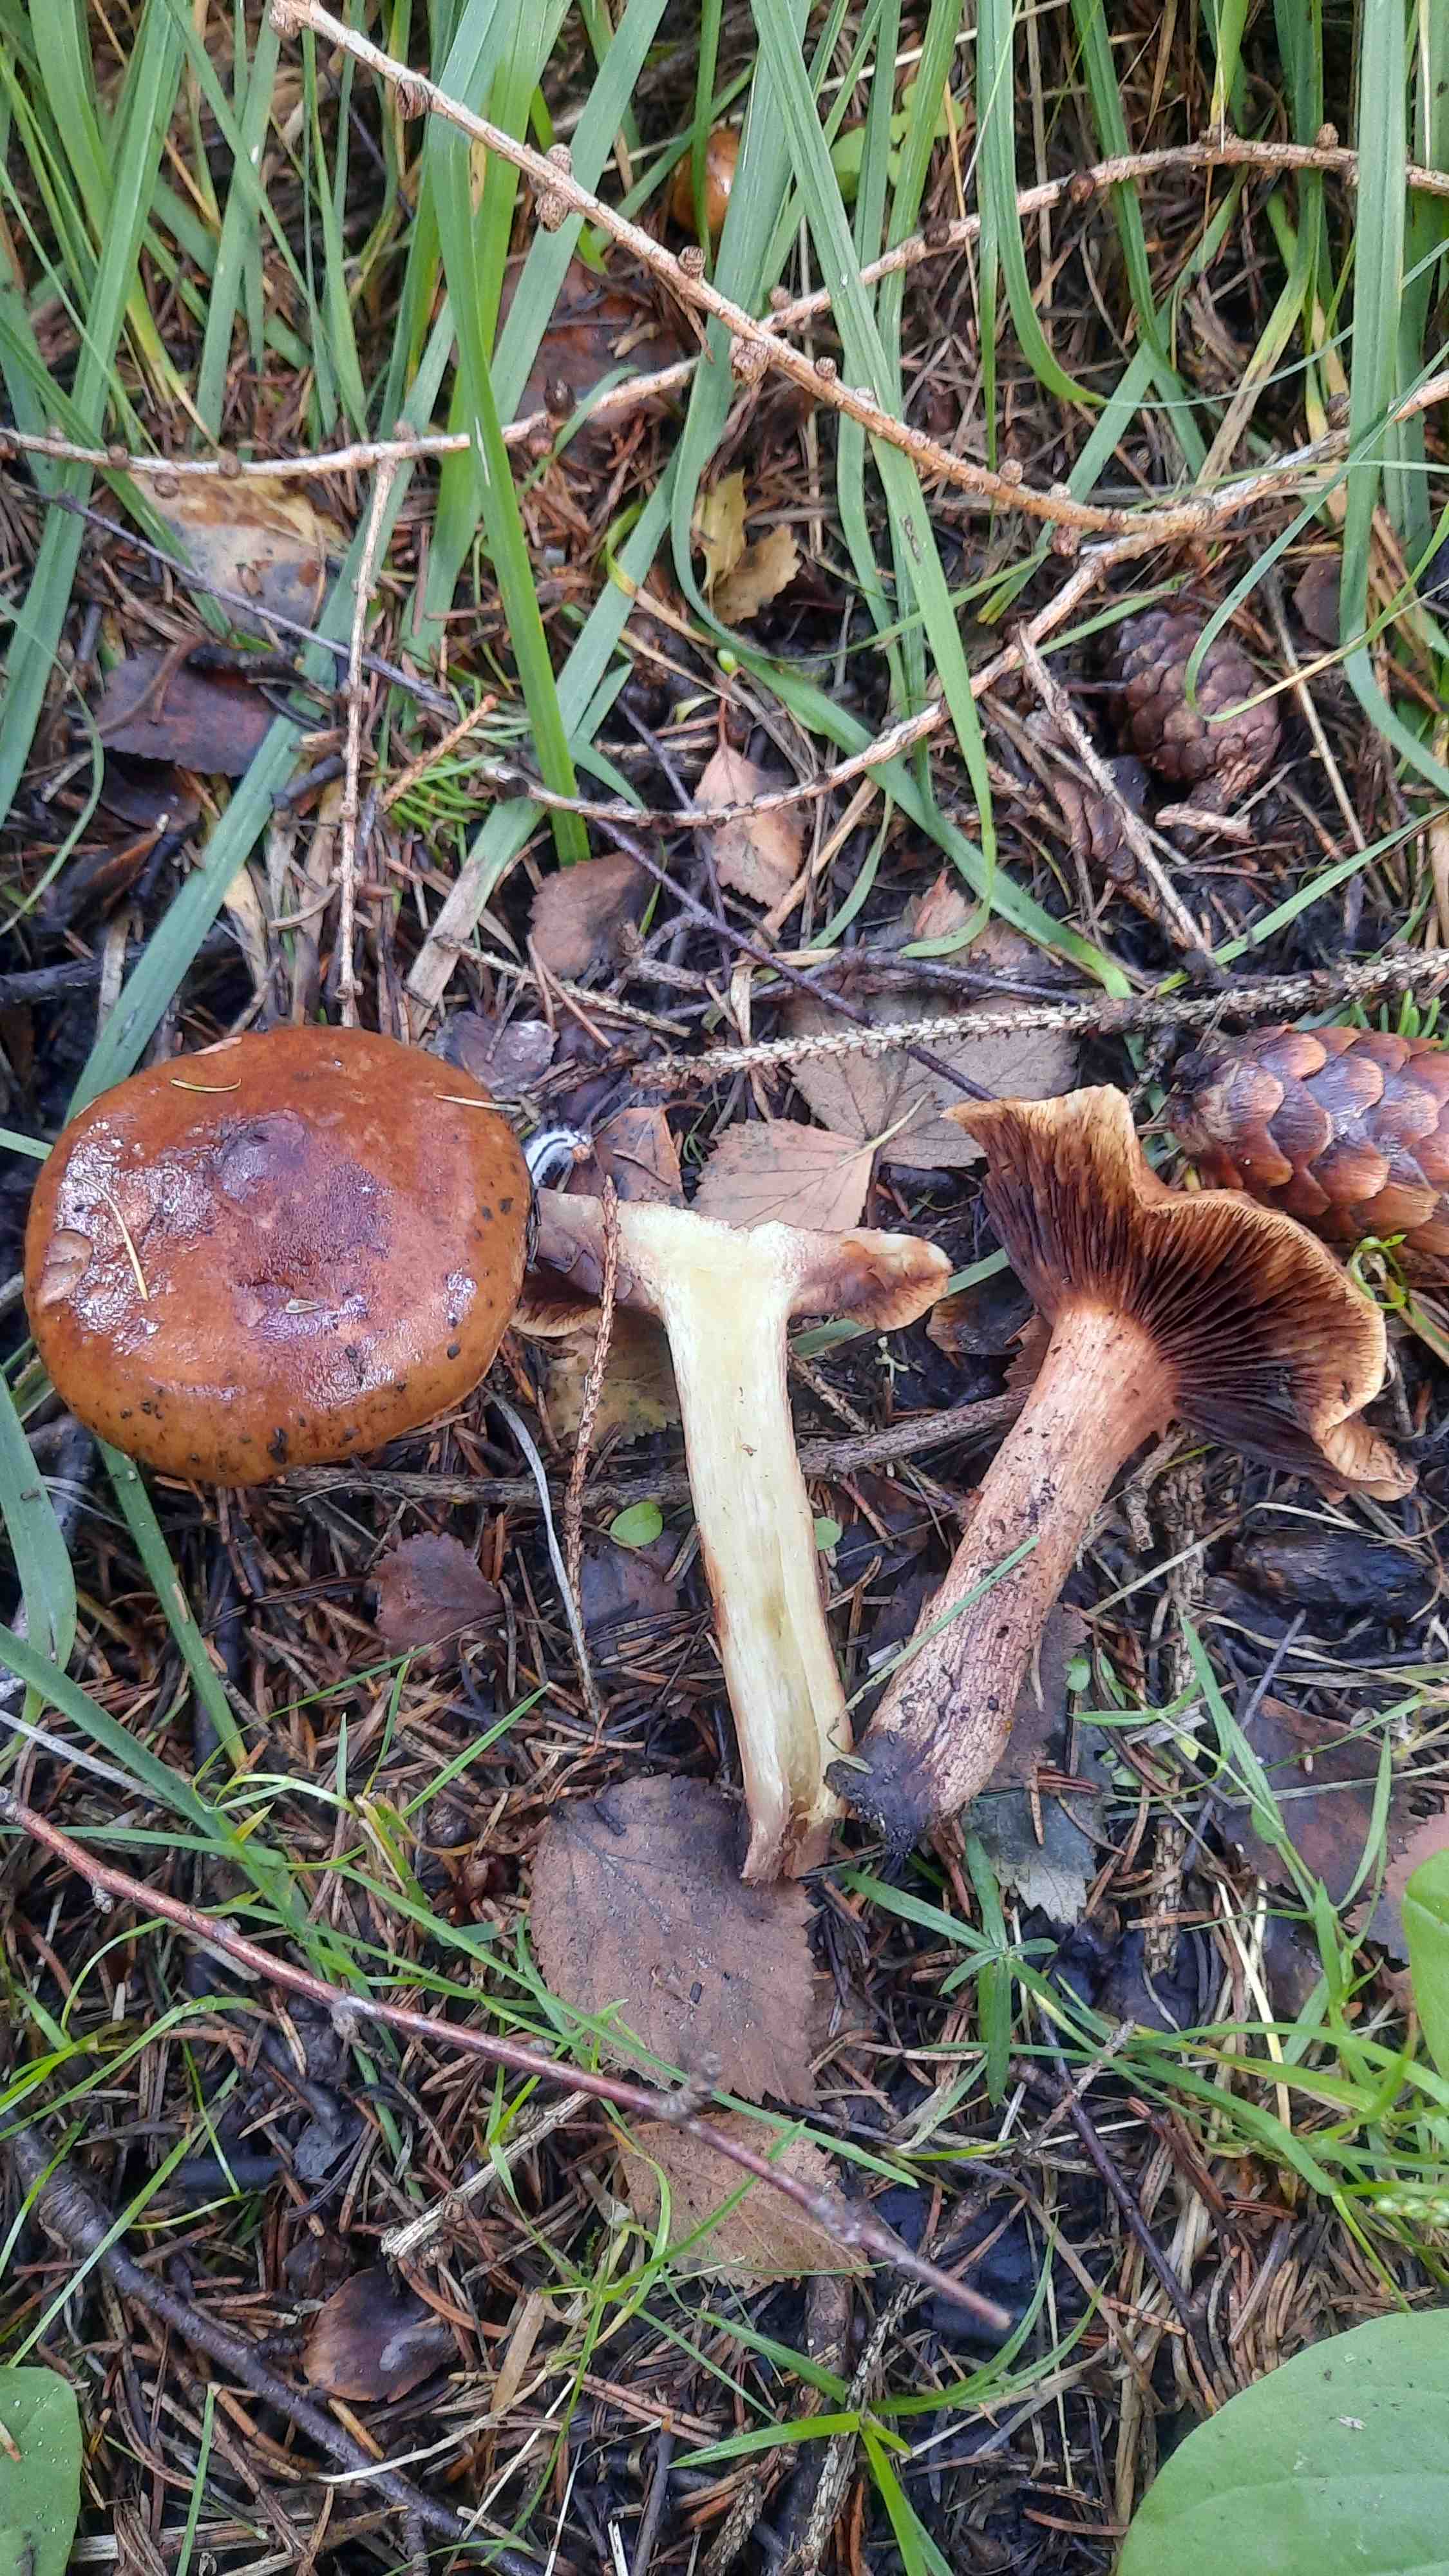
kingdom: Fungi
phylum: Basidiomycota
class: Agaricomycetes
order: Agaricales
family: Tricholomataceae
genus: Tricholoma
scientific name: Tricholoma fulvum
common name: birke-ridderhat
